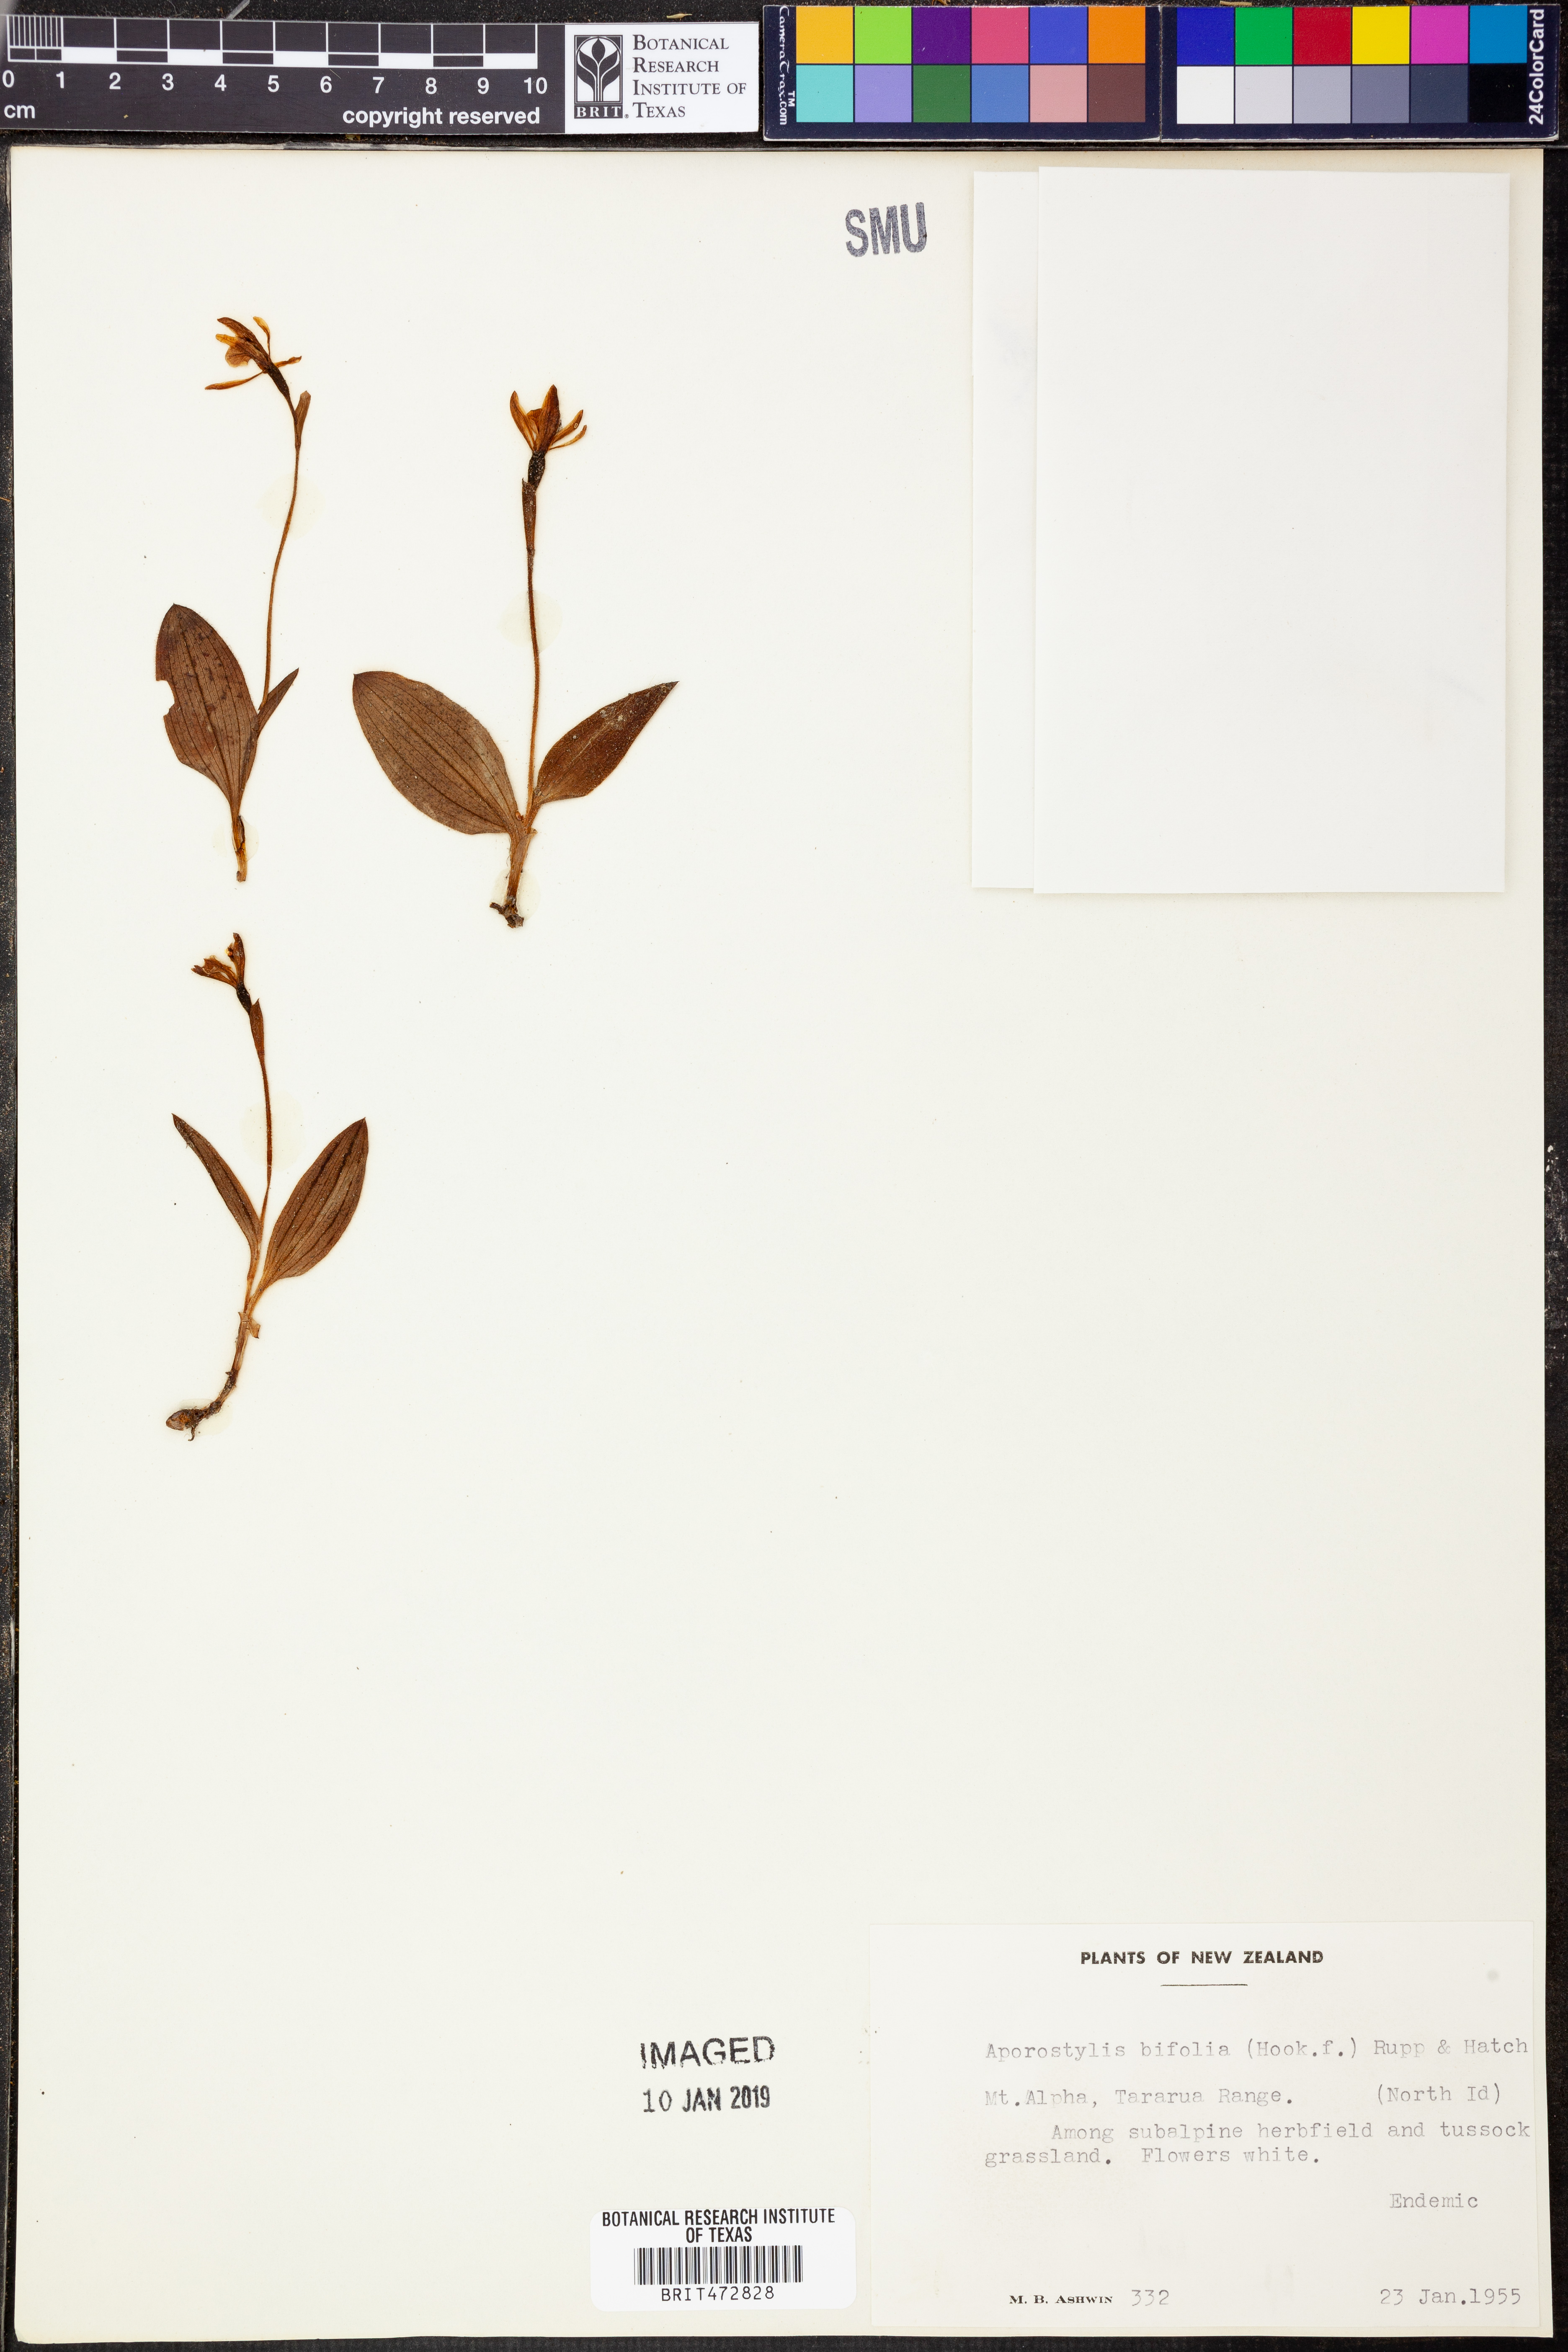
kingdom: Plantae
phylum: Tracheophyta
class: Liliopsida
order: Asparagales
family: Orchidaceae
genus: Aporostylis
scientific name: Aporostylis bifolia
